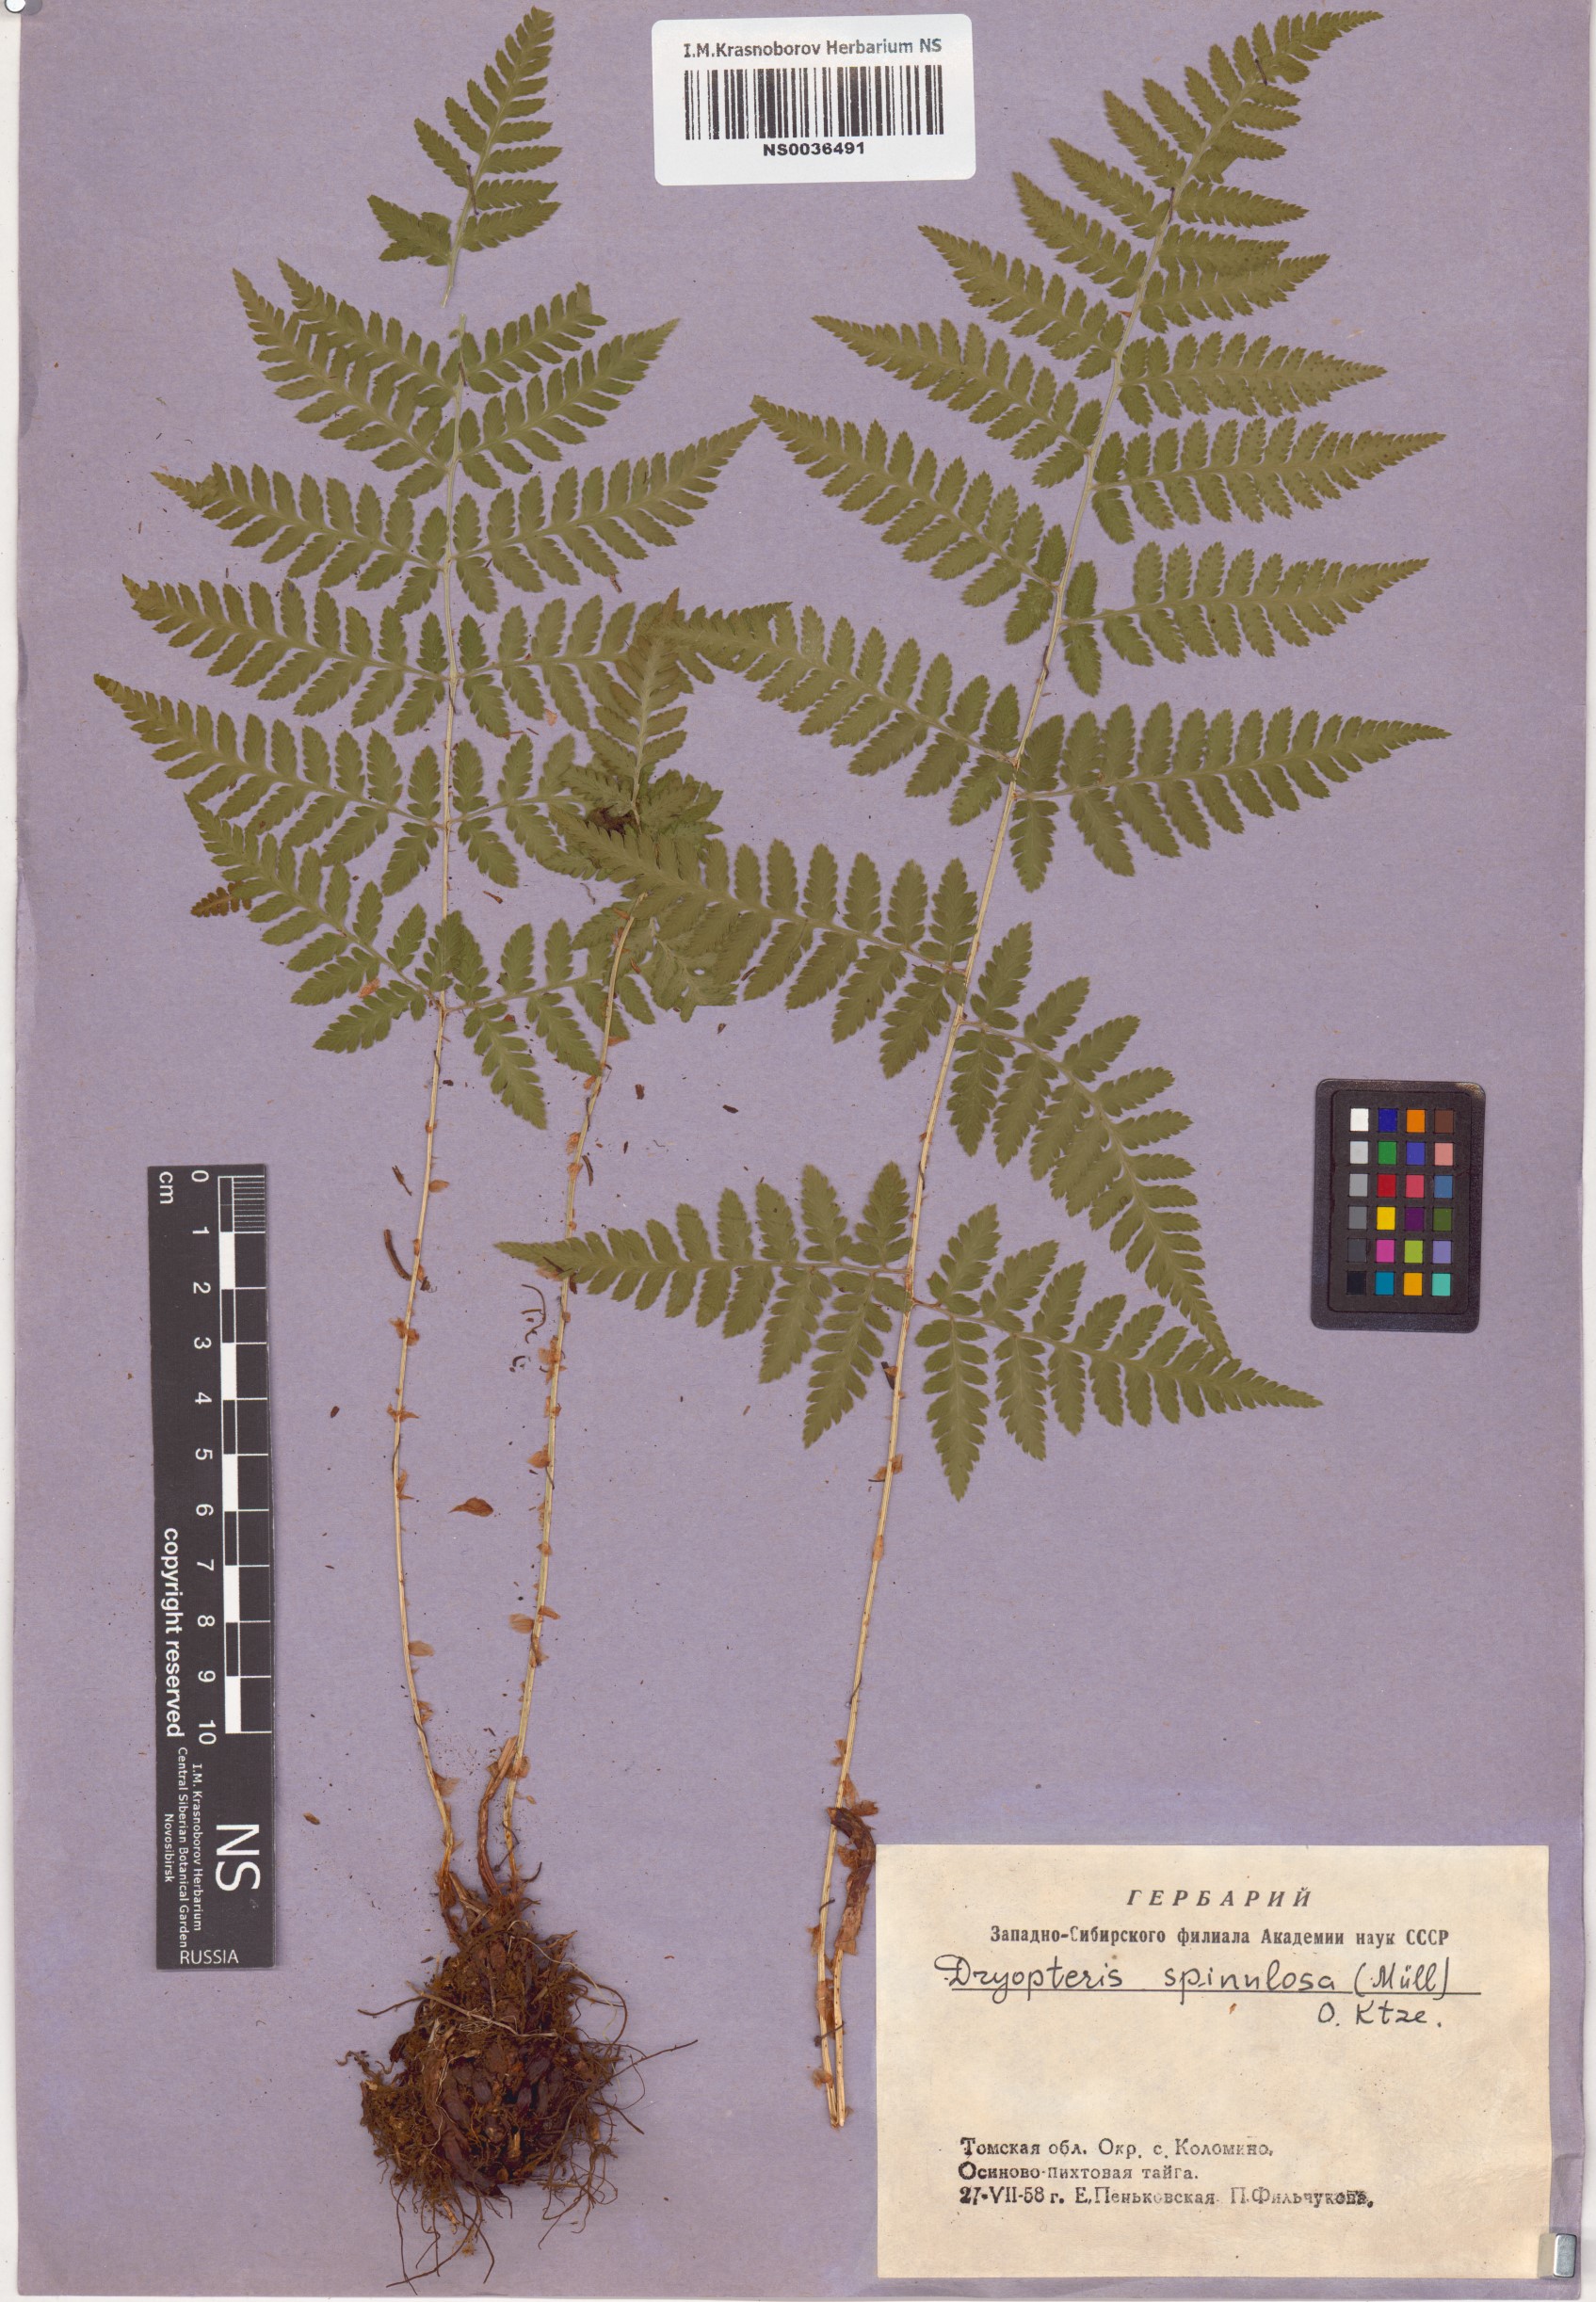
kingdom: Plantae
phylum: Tracheophyta
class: Polypodiopsida
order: Polypodiales
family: Dryopteridaceae
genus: Dryopteris
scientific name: Dryopteris carthusiana
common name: Narrow buckler-fern
